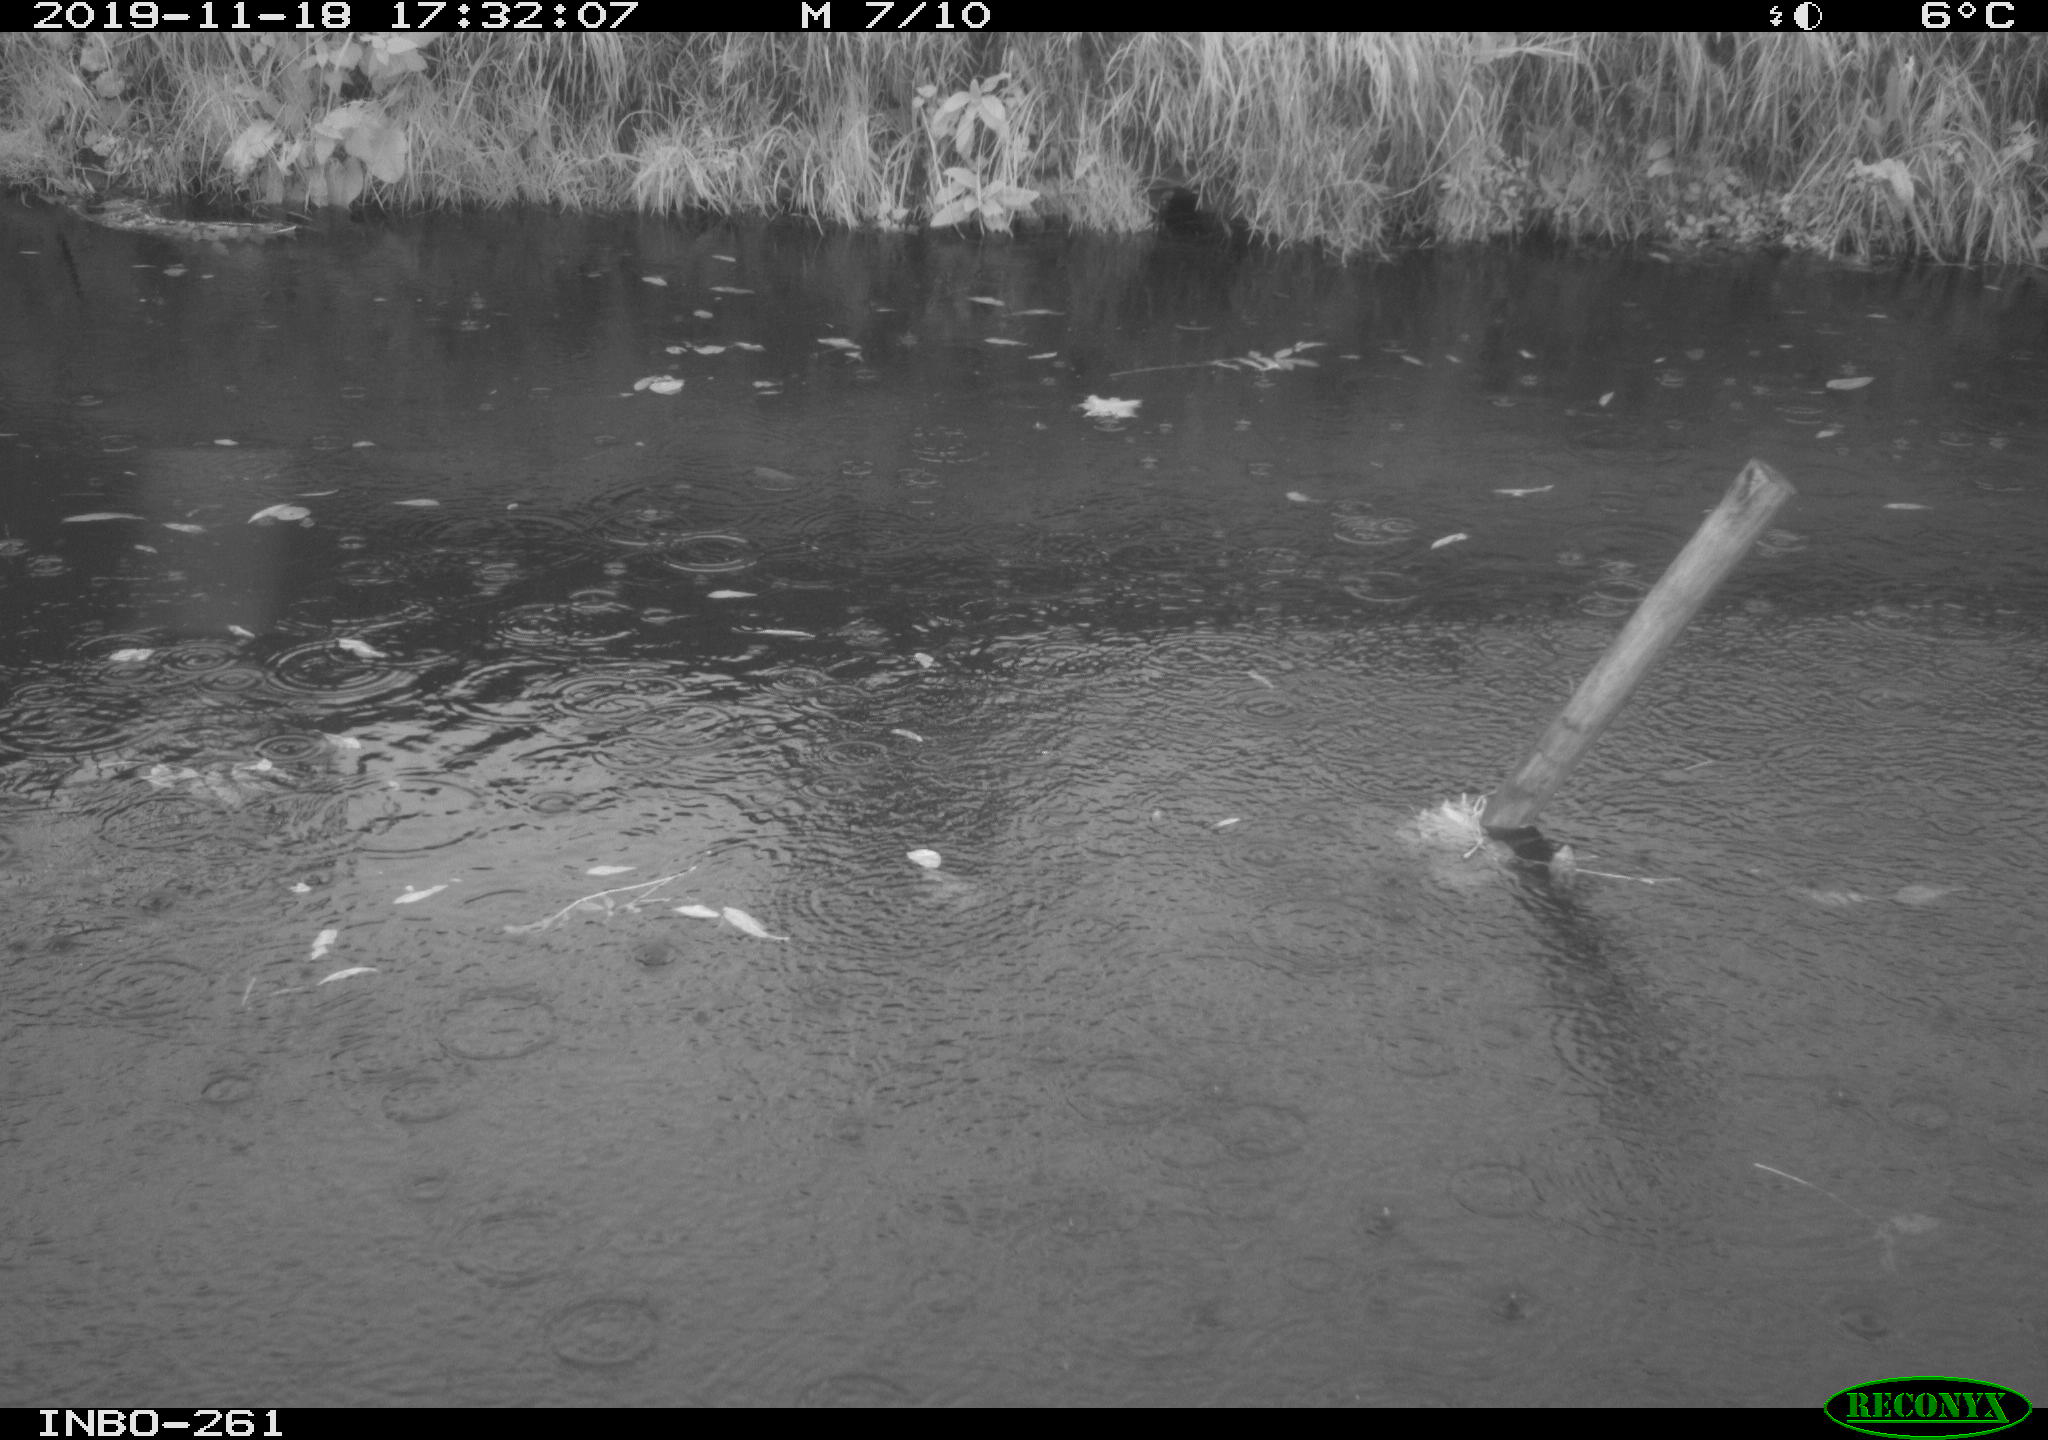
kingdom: Animalia
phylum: Chordata
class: Aves
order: Gruiformes
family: Rallidae
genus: Gallinula
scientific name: Gallinula chloropus
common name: Common moorhen
